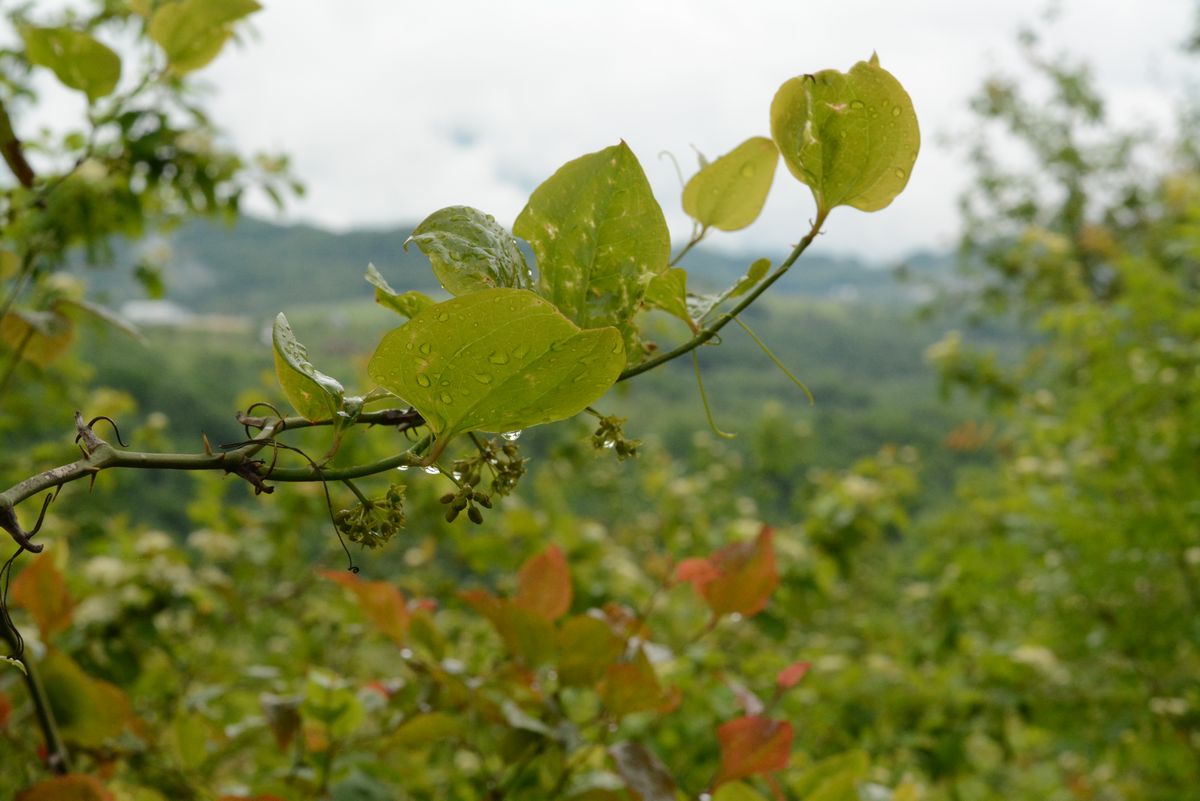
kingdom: Plantae
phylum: Tracheophyta
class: Liliopsida
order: Liliales
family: Smilacaceae
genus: Smilax
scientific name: Smilax excelsa
